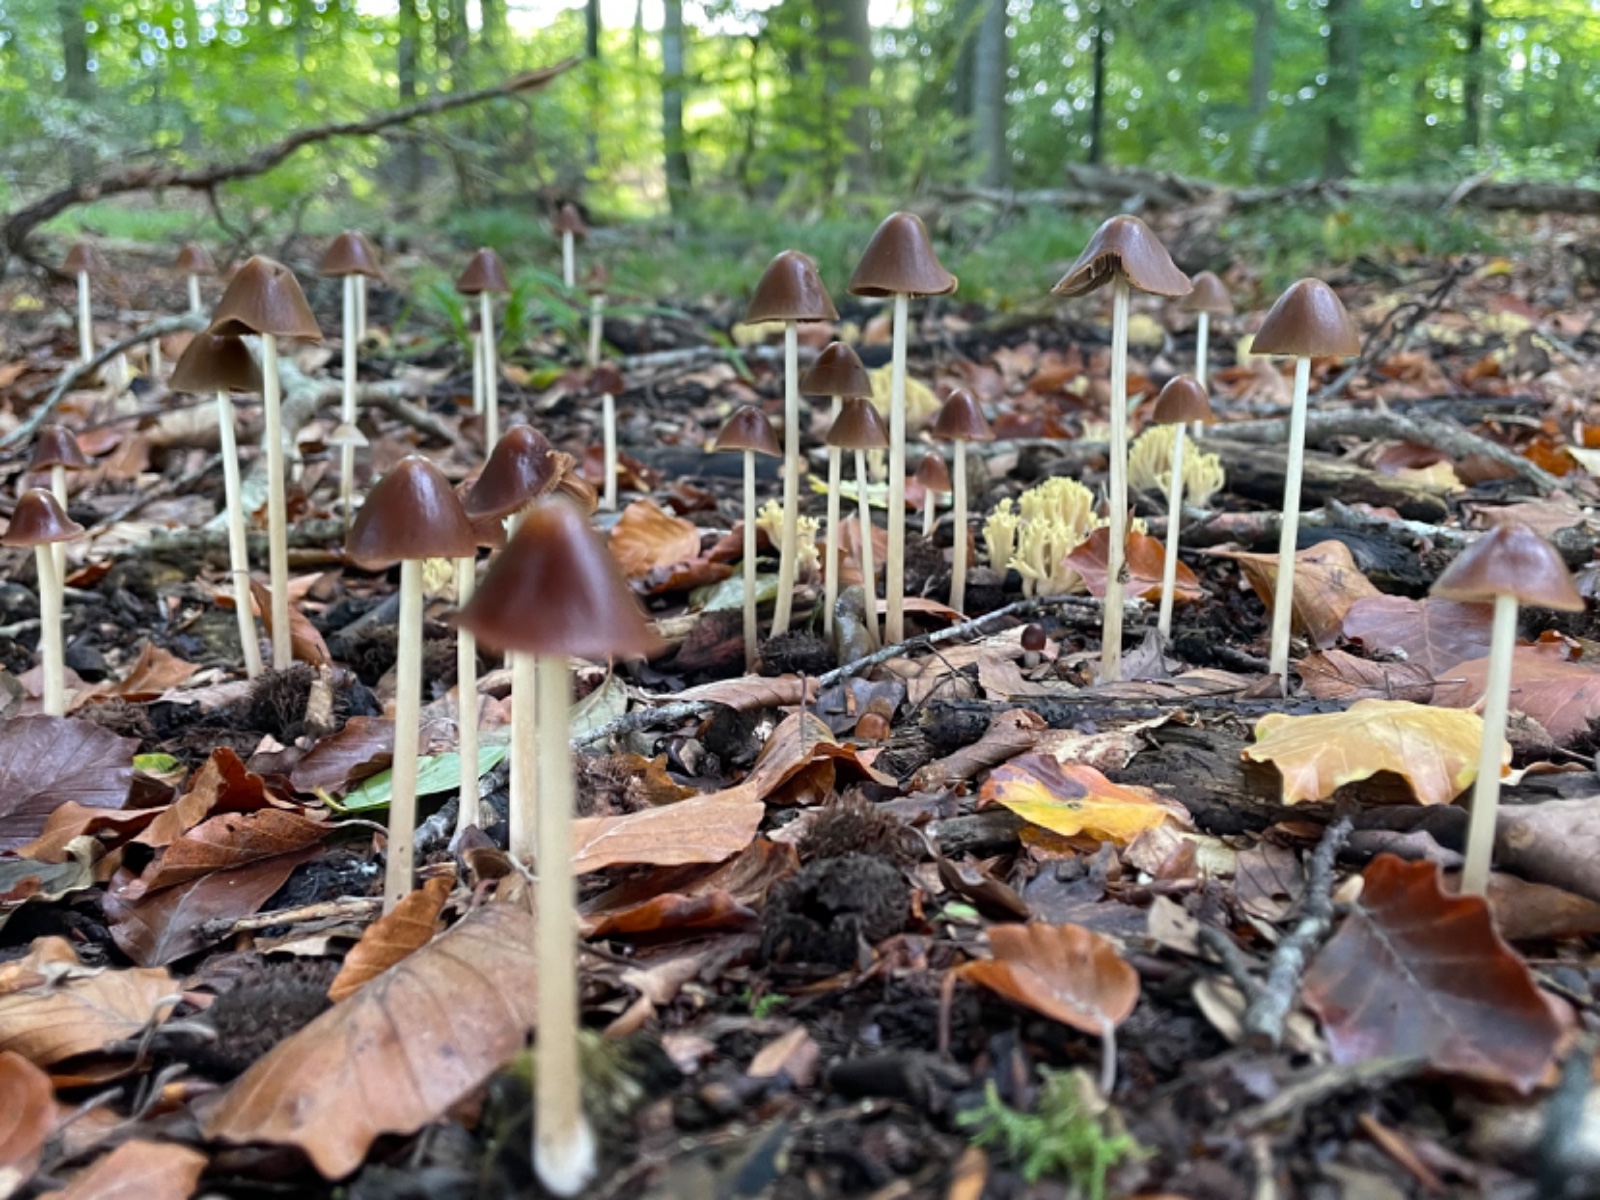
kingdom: Fungi
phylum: Basidiomycota
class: Agaricomycetes
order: Agaricales
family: Psathyrellaceae
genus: Parasola
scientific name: Parasola conopilea
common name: kegle-hjulhat
